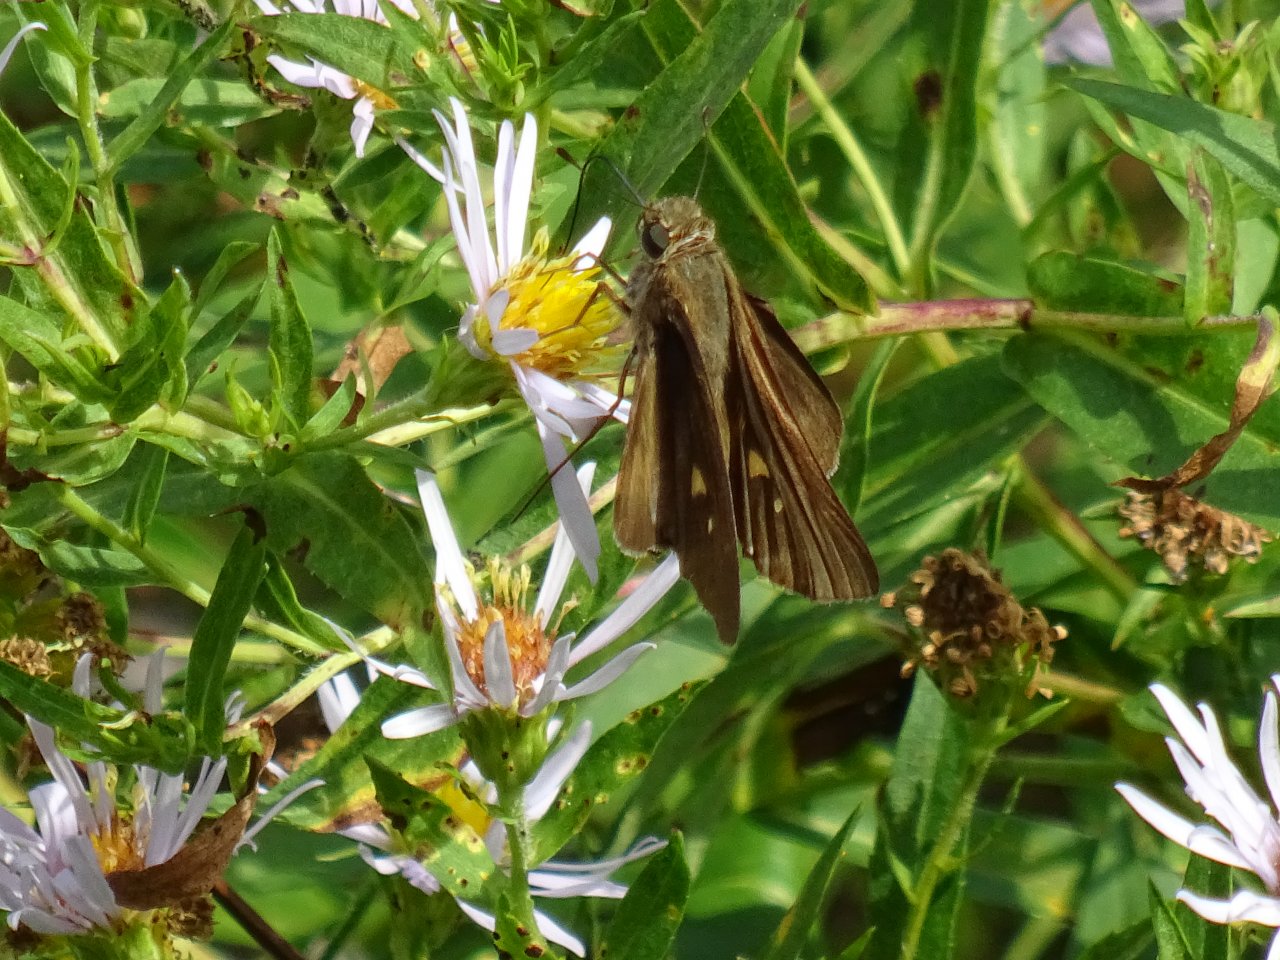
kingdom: Animalia
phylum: Arthropoda
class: Insecta
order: Lepidoptera
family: Hesperiidae
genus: Panoquina
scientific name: Panoquina ocola
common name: Ocola Skipper
